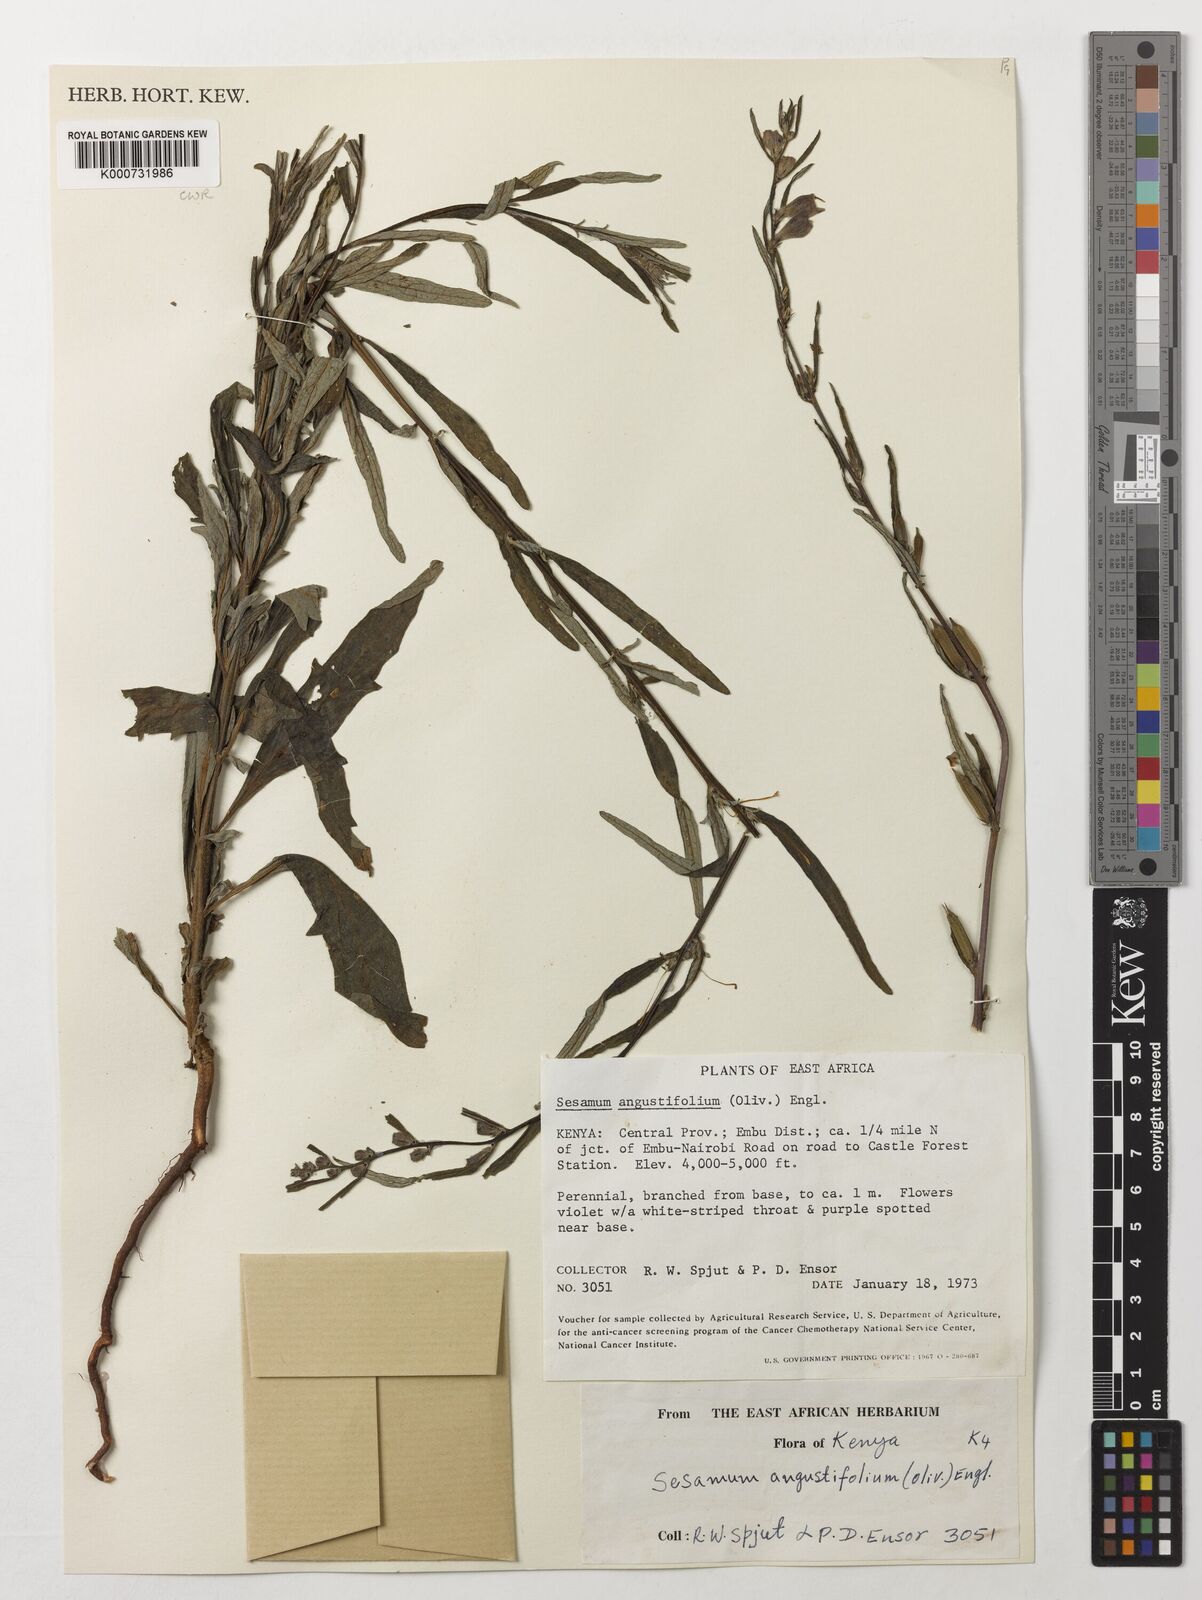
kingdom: Plantae
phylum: Tracheophyta
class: Magnoliopsida
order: Lamiales
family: Pedaliaceae
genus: Sesamum
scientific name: Sesamum angustifolium
